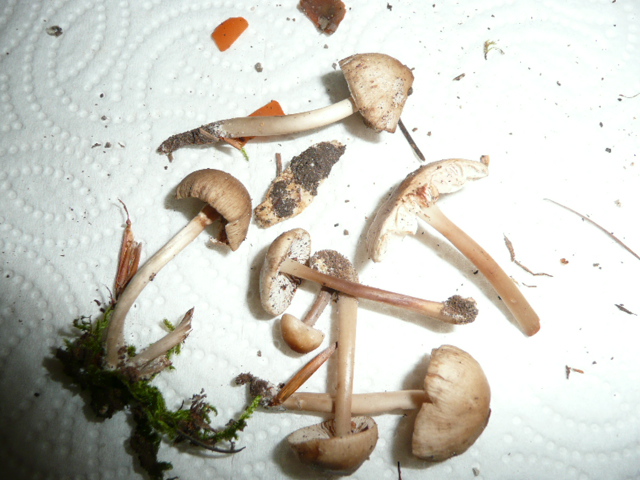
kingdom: Fungi
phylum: Basidiomycota
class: Agaricomycetes
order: Agaricales
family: Mycenaceae
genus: Mycena
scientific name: Mycena galericulata
